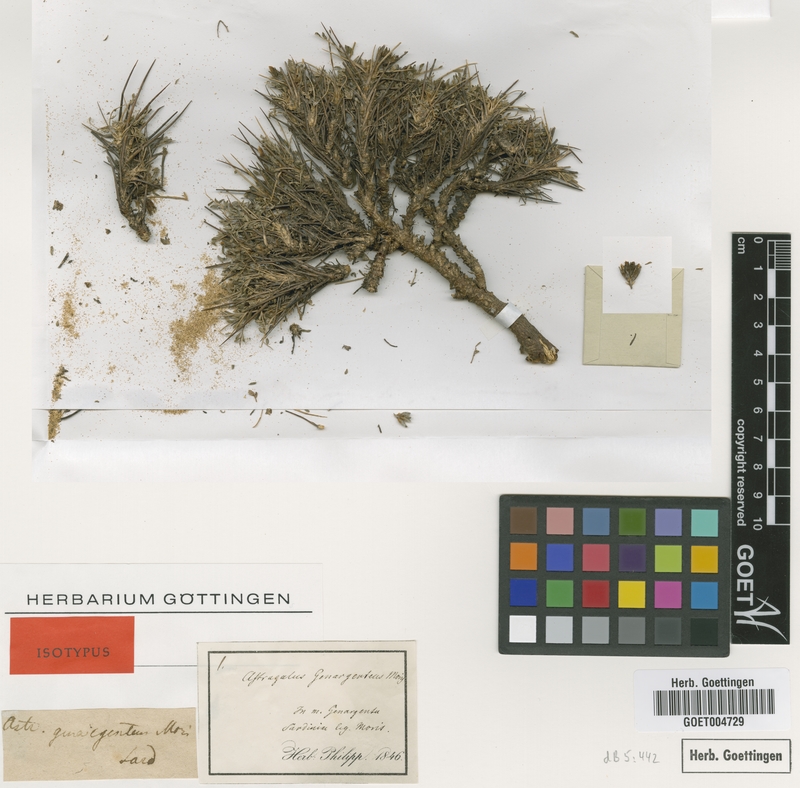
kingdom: Plantae
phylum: Tracheophyta
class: Magnoliopsida
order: Fabales
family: Fabaceae
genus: Astragalus
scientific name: Astragalus genargenteus
